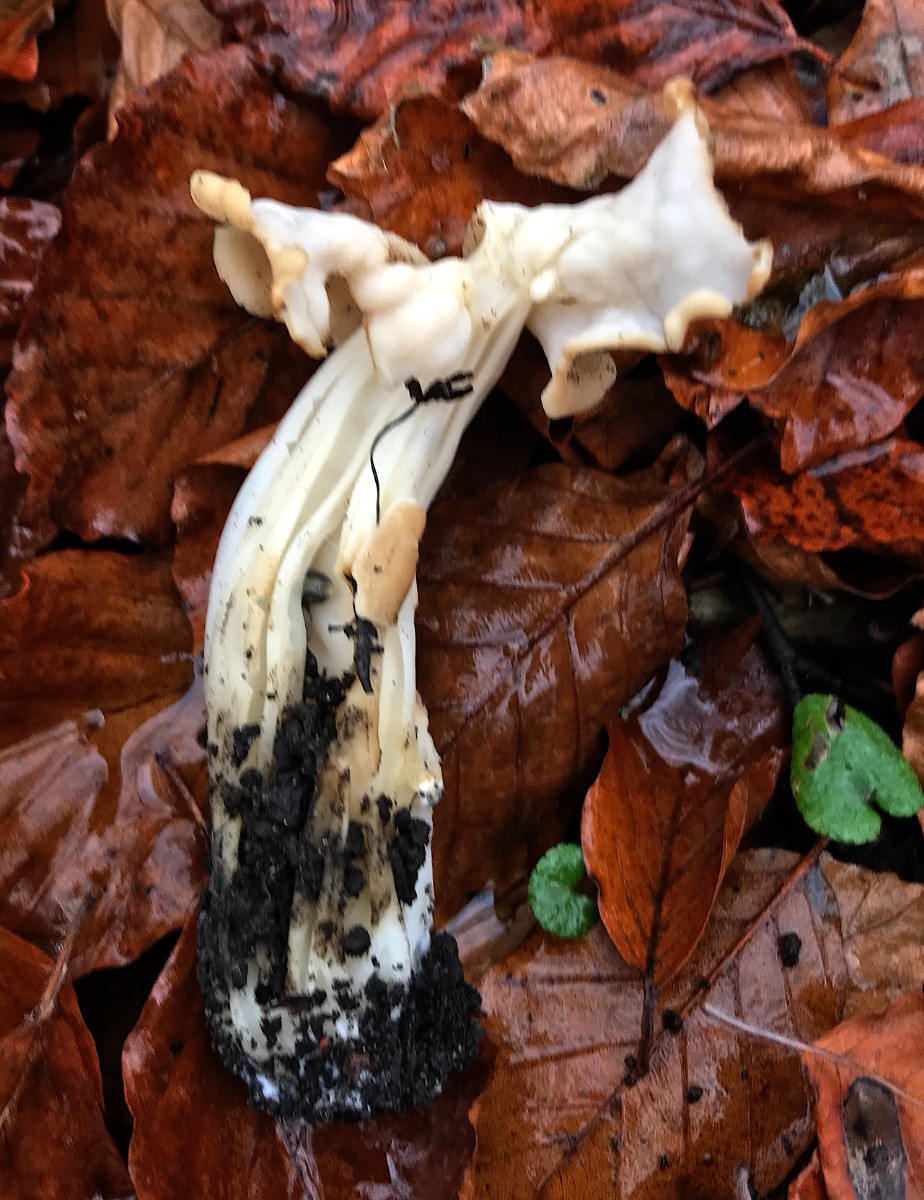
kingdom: Fungi
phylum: Ascomycota
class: Pezizomycetes
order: Pezizales
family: Helvellaceae
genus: Helvella
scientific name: Helvella crispa
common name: kruset foldhat
